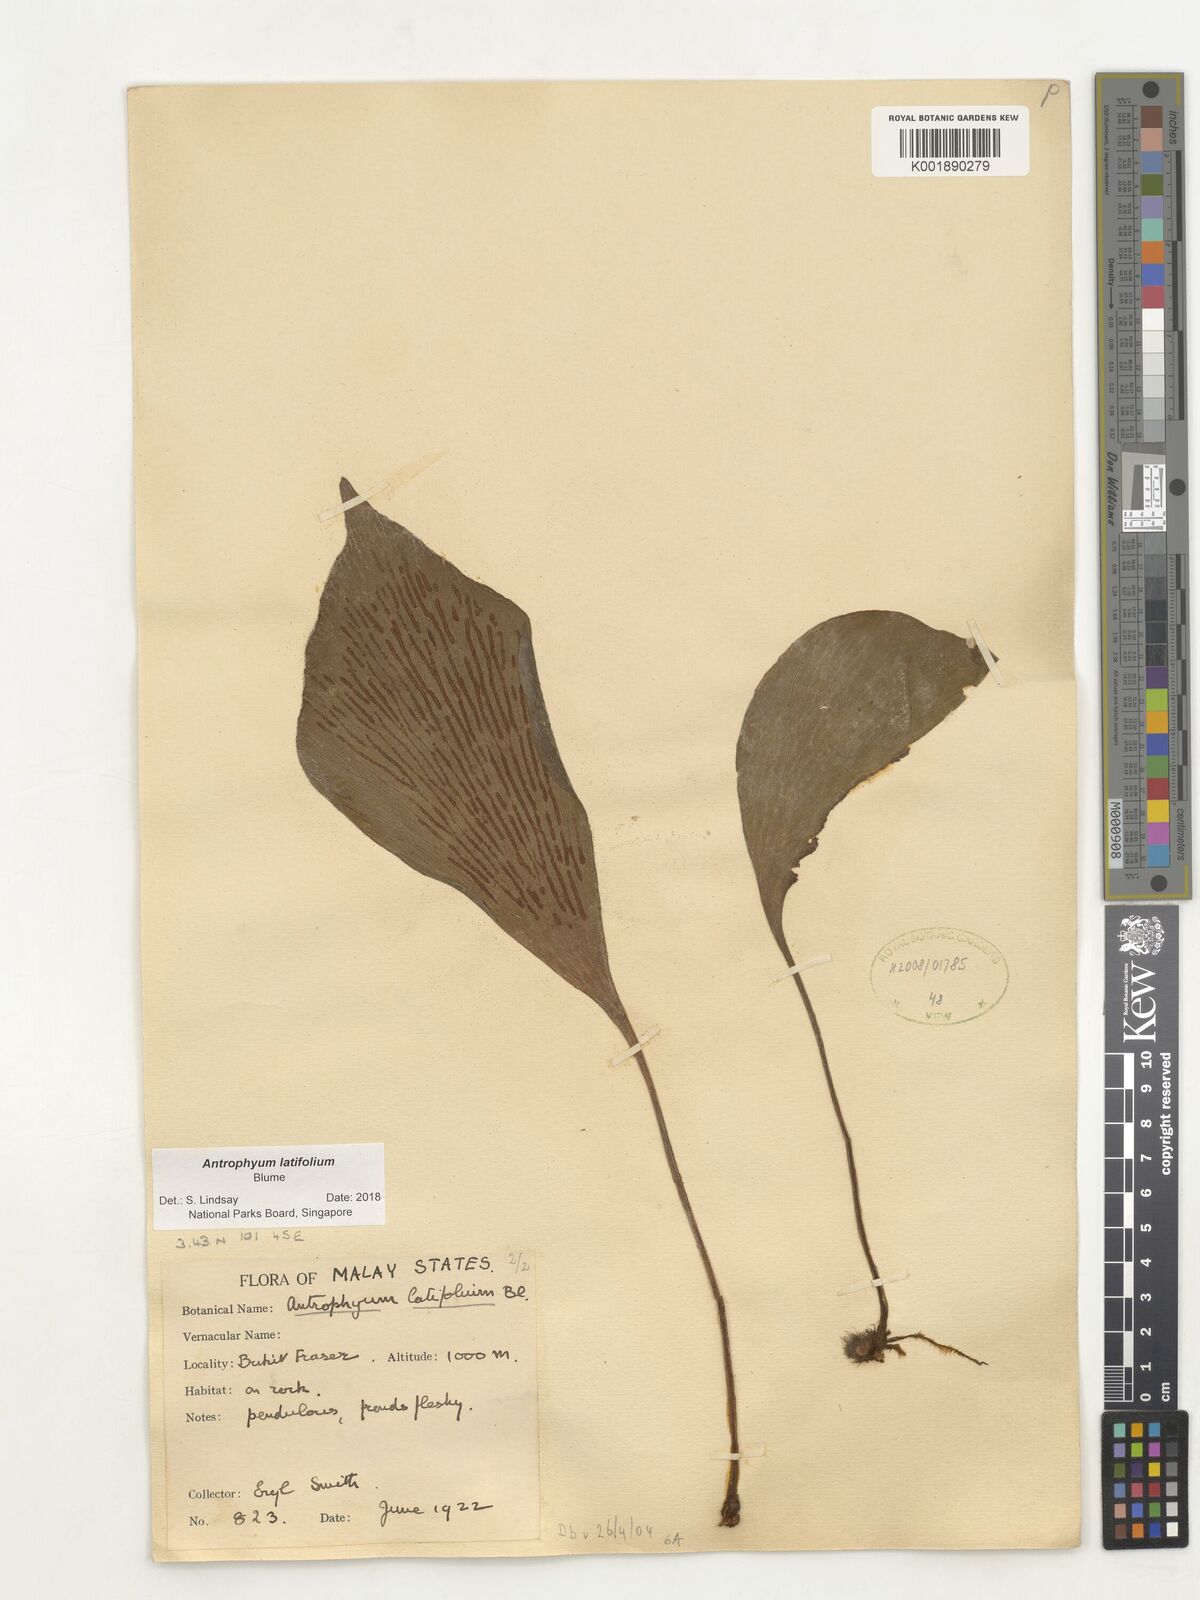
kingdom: Plantae
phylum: Tracheophyta
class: Polypodiopsida
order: Polypodiales
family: Pteridaceae
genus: Antrophyum
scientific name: Antrophyum latifolium
